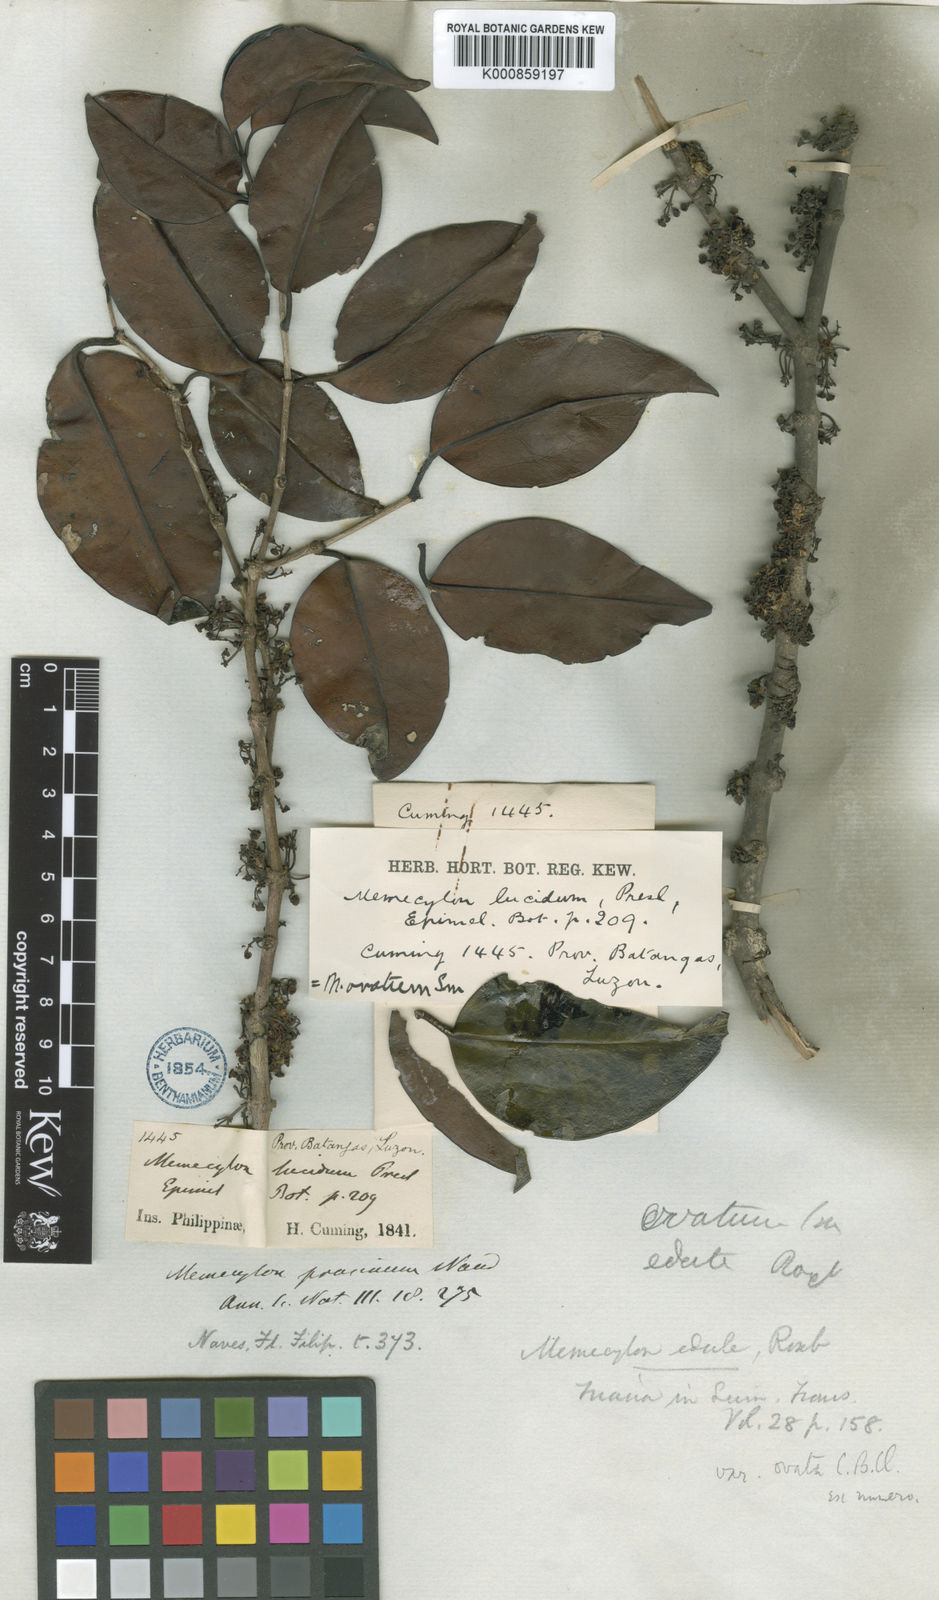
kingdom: Plantae
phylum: Tracheophyta
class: Magnoliopsida
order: Myrtales
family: Melastomataceae
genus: Memecylon
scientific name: Memecylon edule
